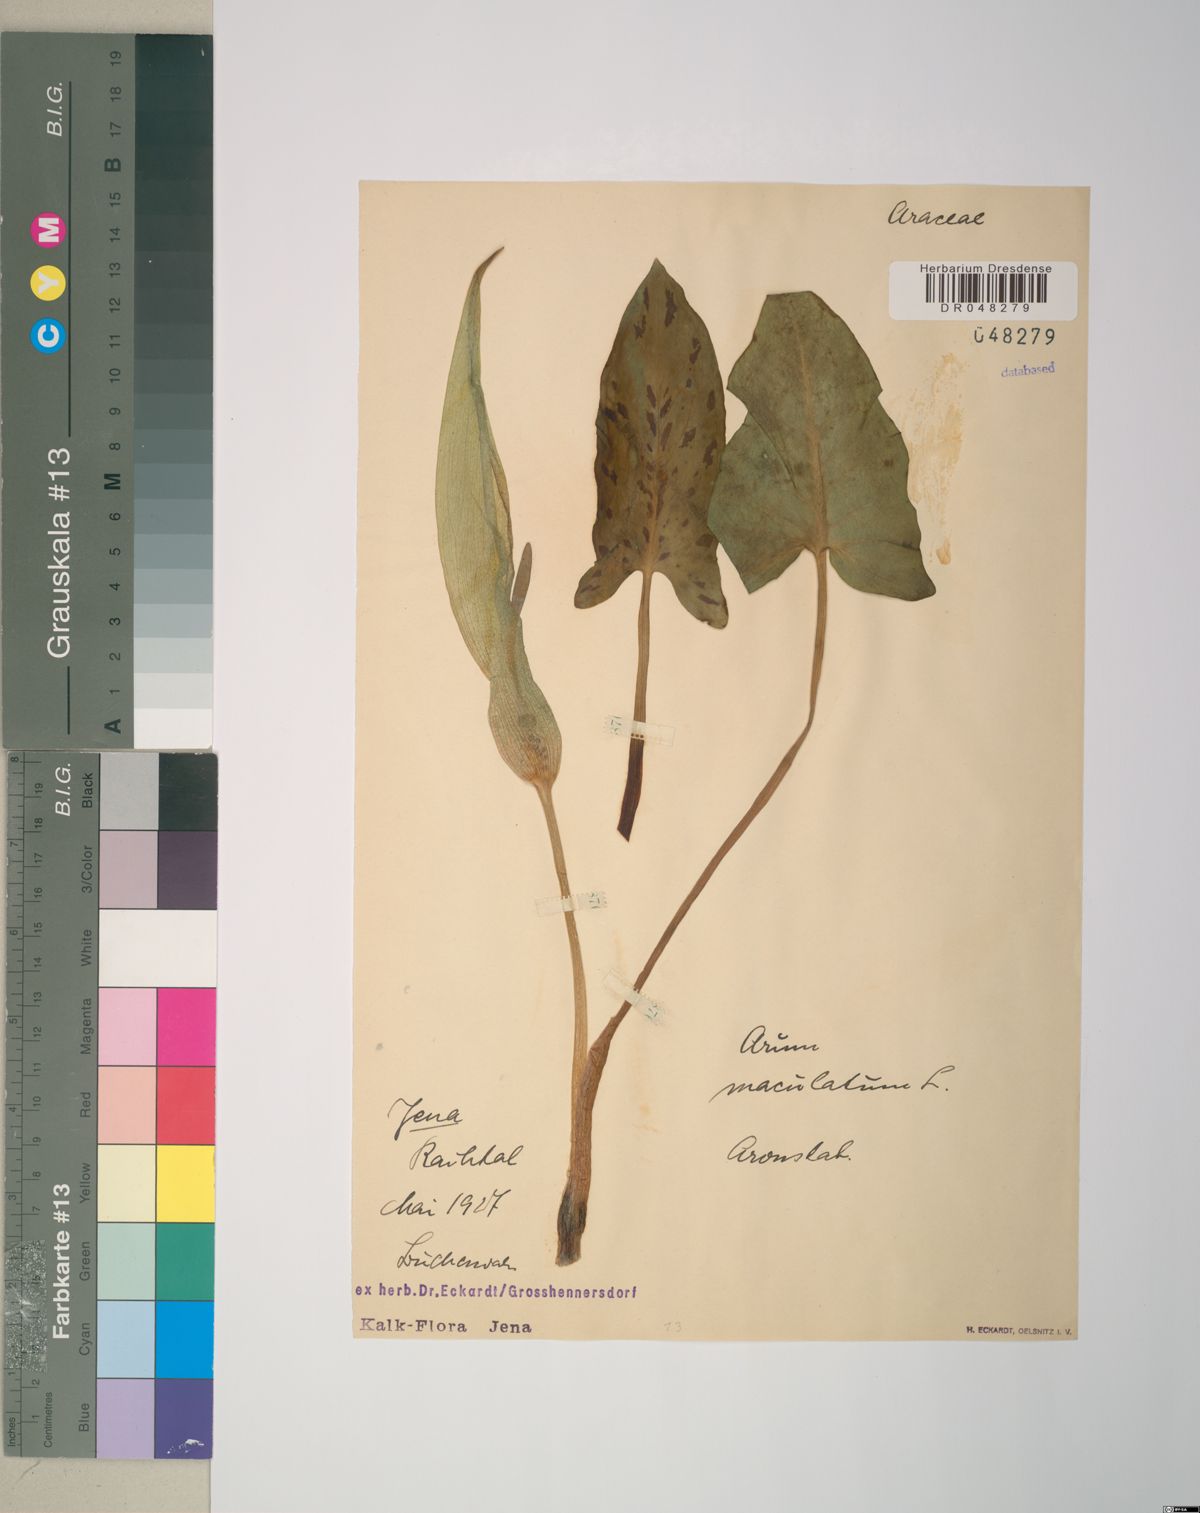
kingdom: Plantae
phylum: Tracheophyta
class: Liliopsida
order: Alismatales
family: Araceae
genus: Arum
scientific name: Arum maculatum
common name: Lords-and-ladies
